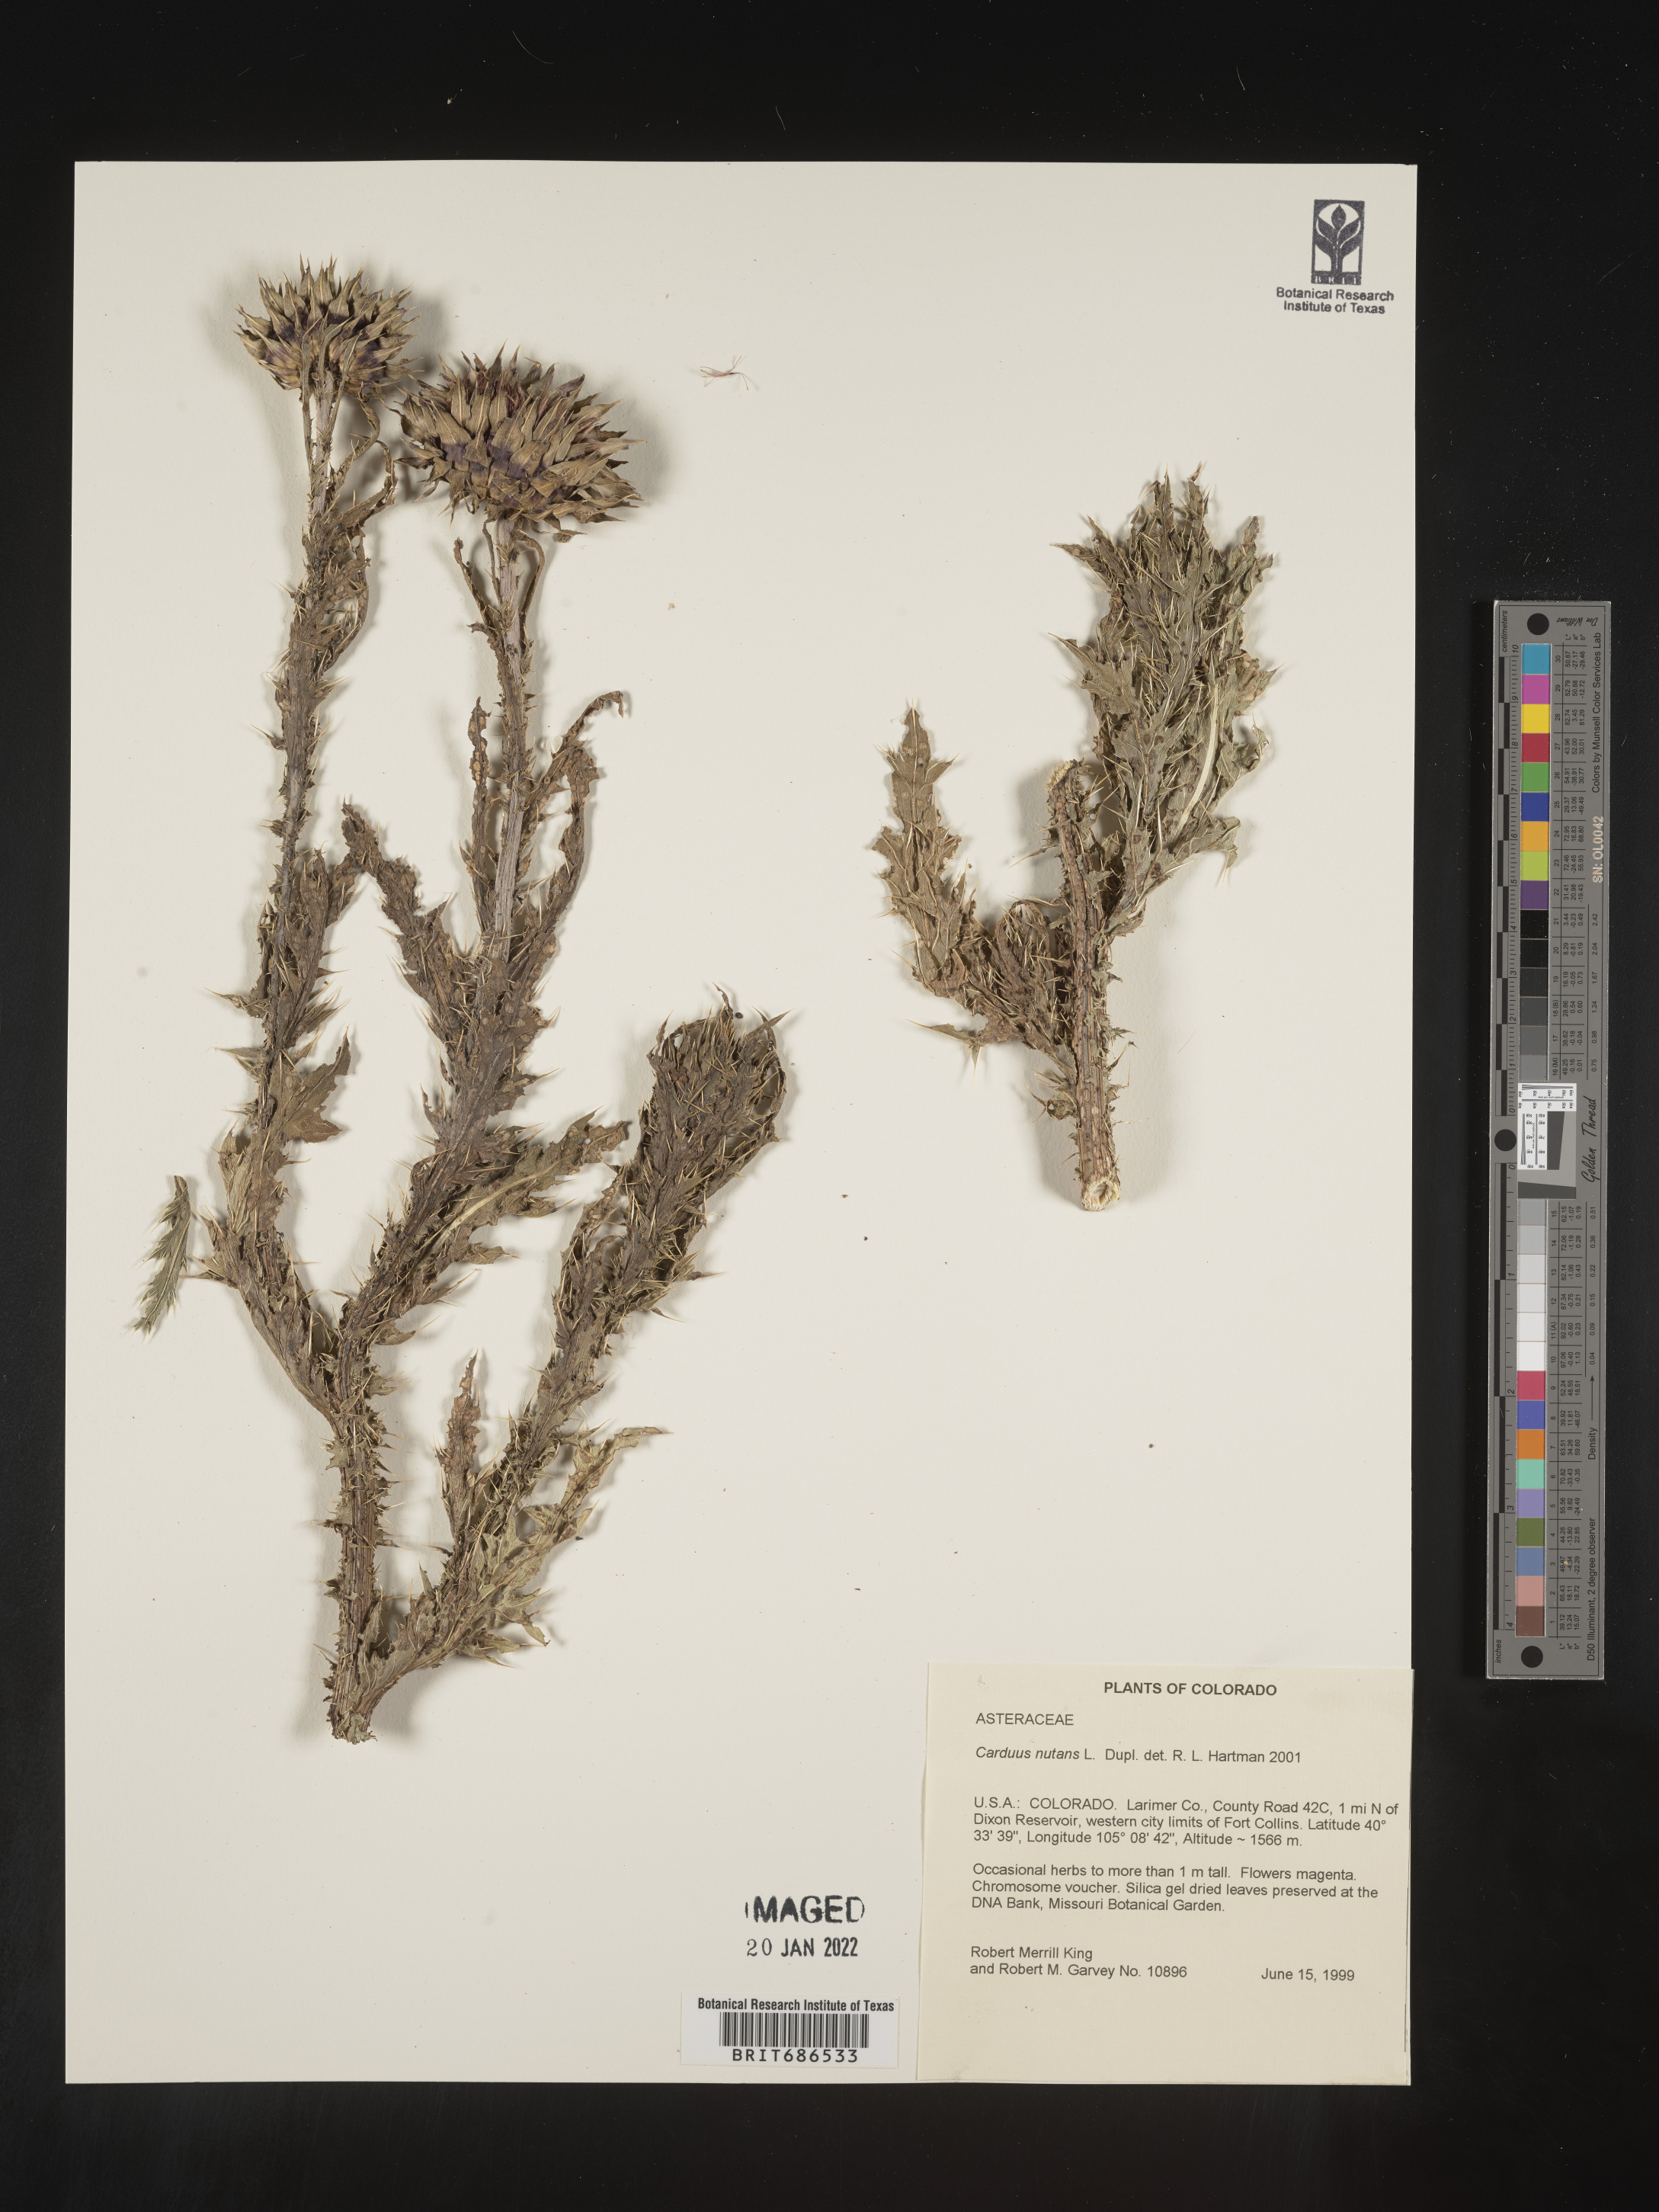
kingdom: Plantae
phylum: Tracheophyta
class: Magnoliopsida
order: Asterales
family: Asteraceae
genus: Carduus
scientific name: Carduus nutans
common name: Musk thistle
